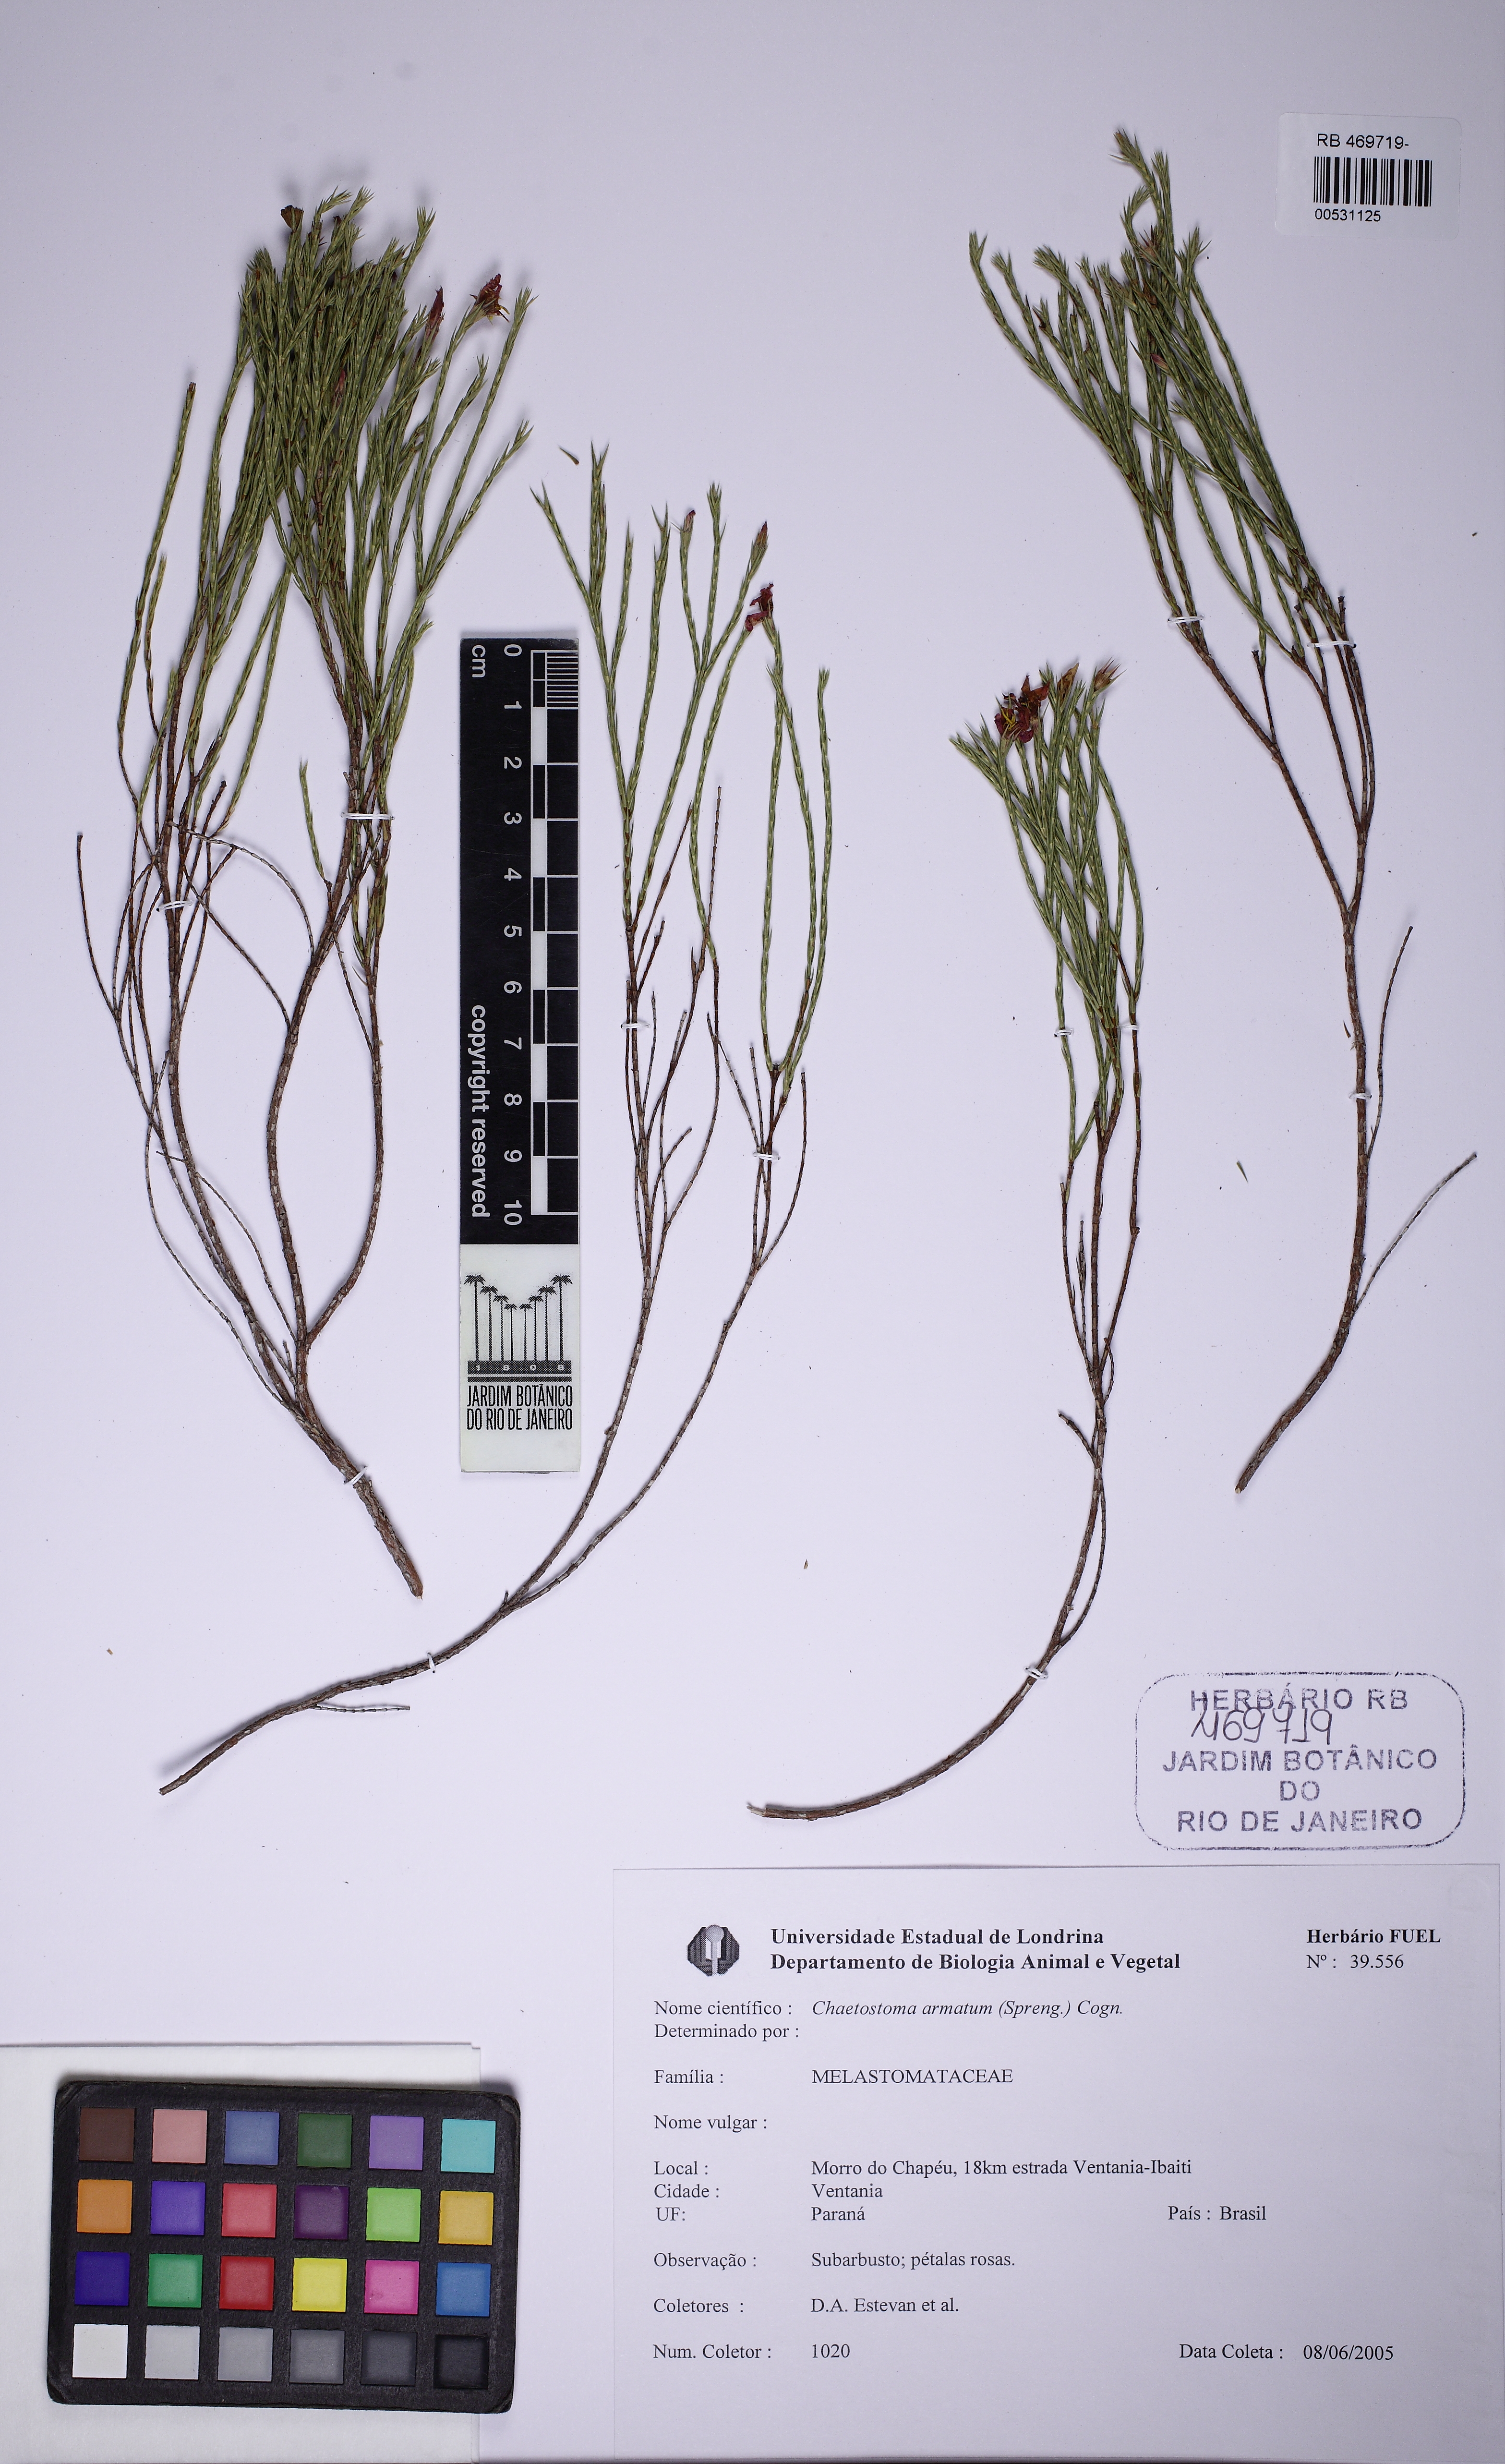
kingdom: Plantae
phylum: Tracheophyta
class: Magnoliopsida
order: Myrtales
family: Melastomataceae
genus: Microlicia
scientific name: Microlicia armata
